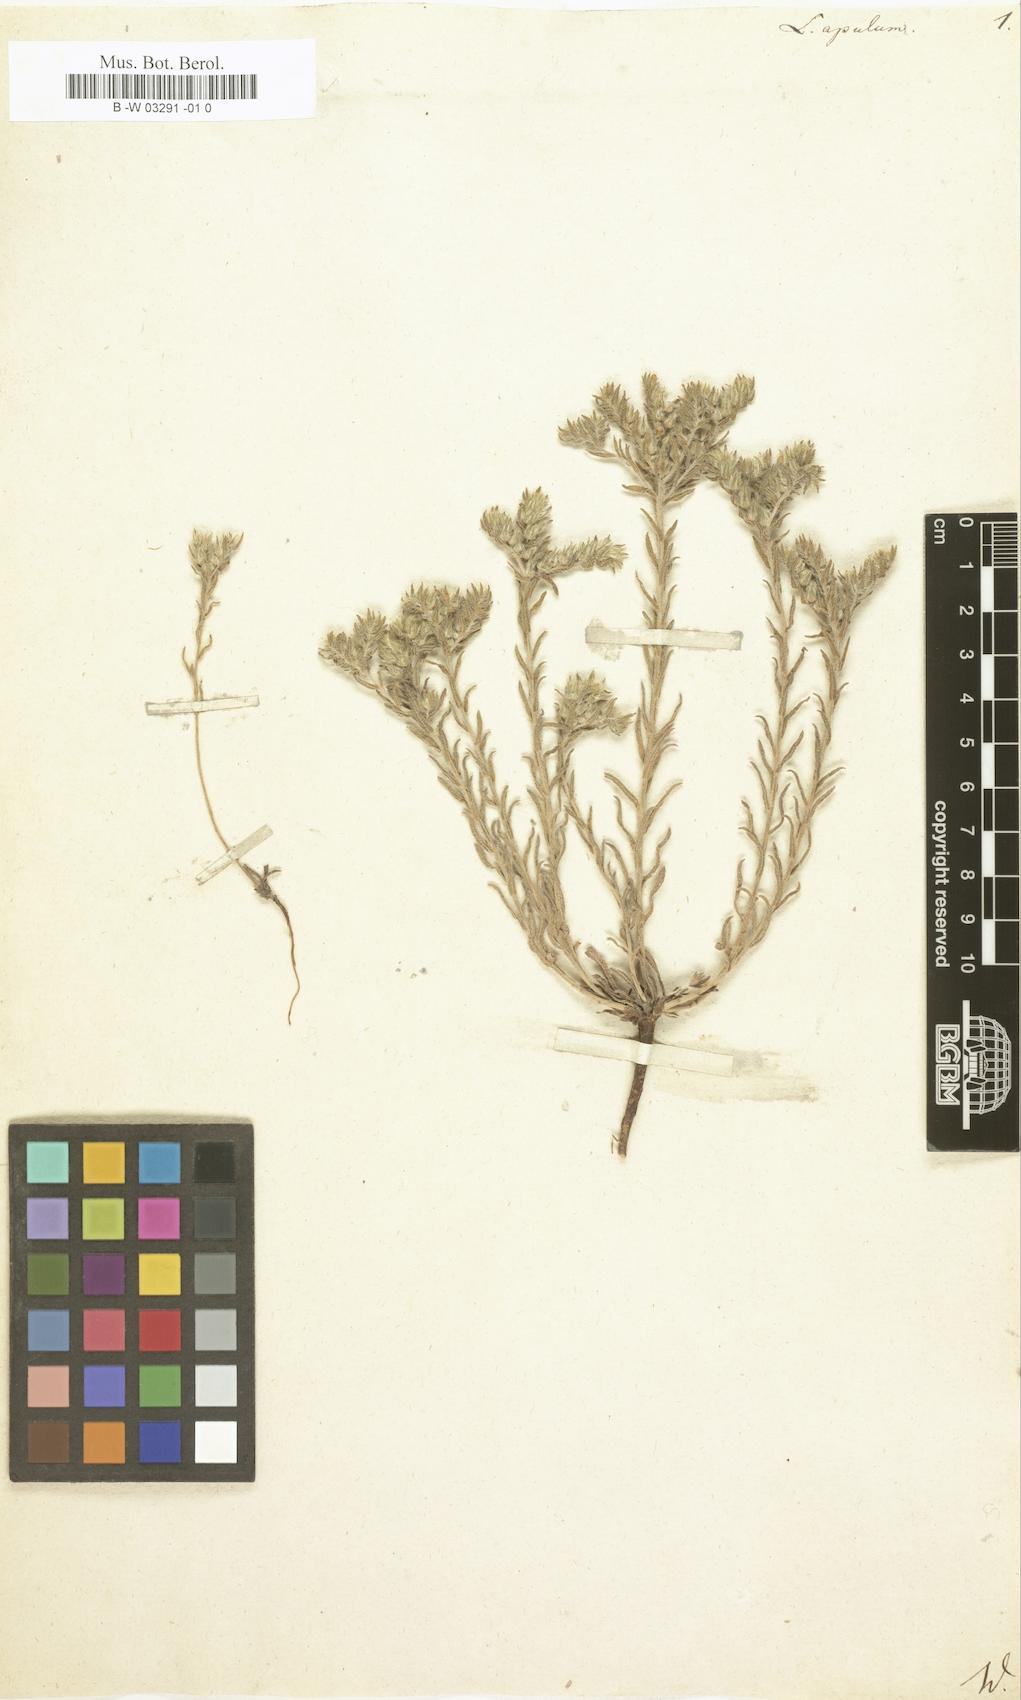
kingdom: Plantae
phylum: Tracheophyta
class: Magnoliopsida
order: Boraginales
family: Boraginaceae
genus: Neatostema
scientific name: Neatostema apulum
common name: Hairy sheepweed
